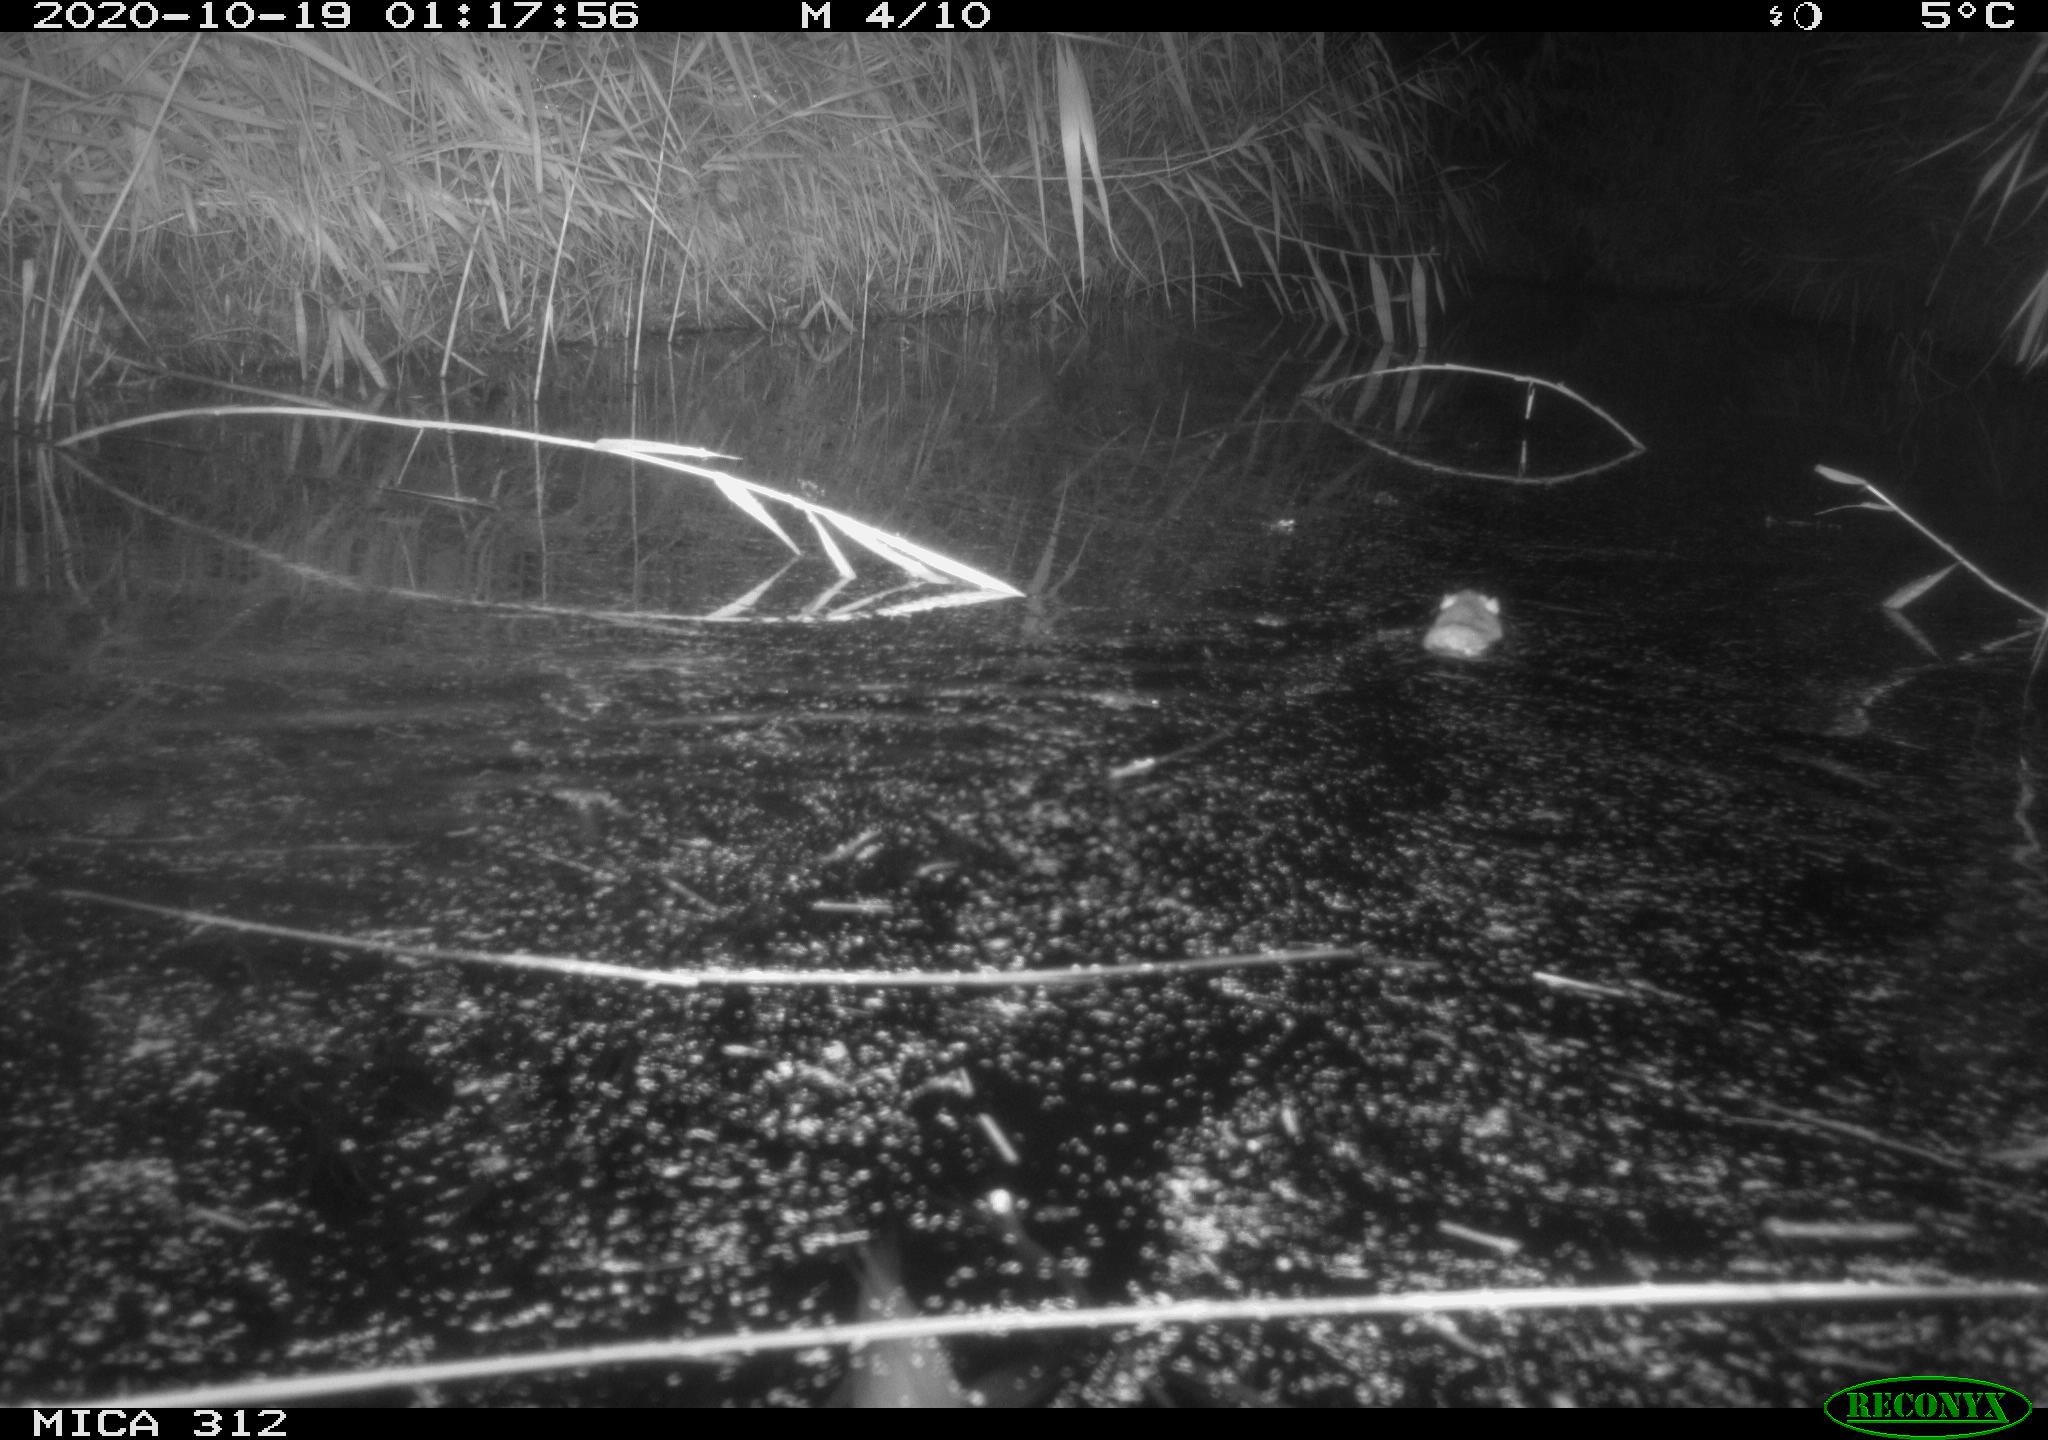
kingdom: Animalia
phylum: Chordata
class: Mammalia
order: Rodentia
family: Muridae
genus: Rattus
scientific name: Rattus norvegicus
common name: Brown rat
